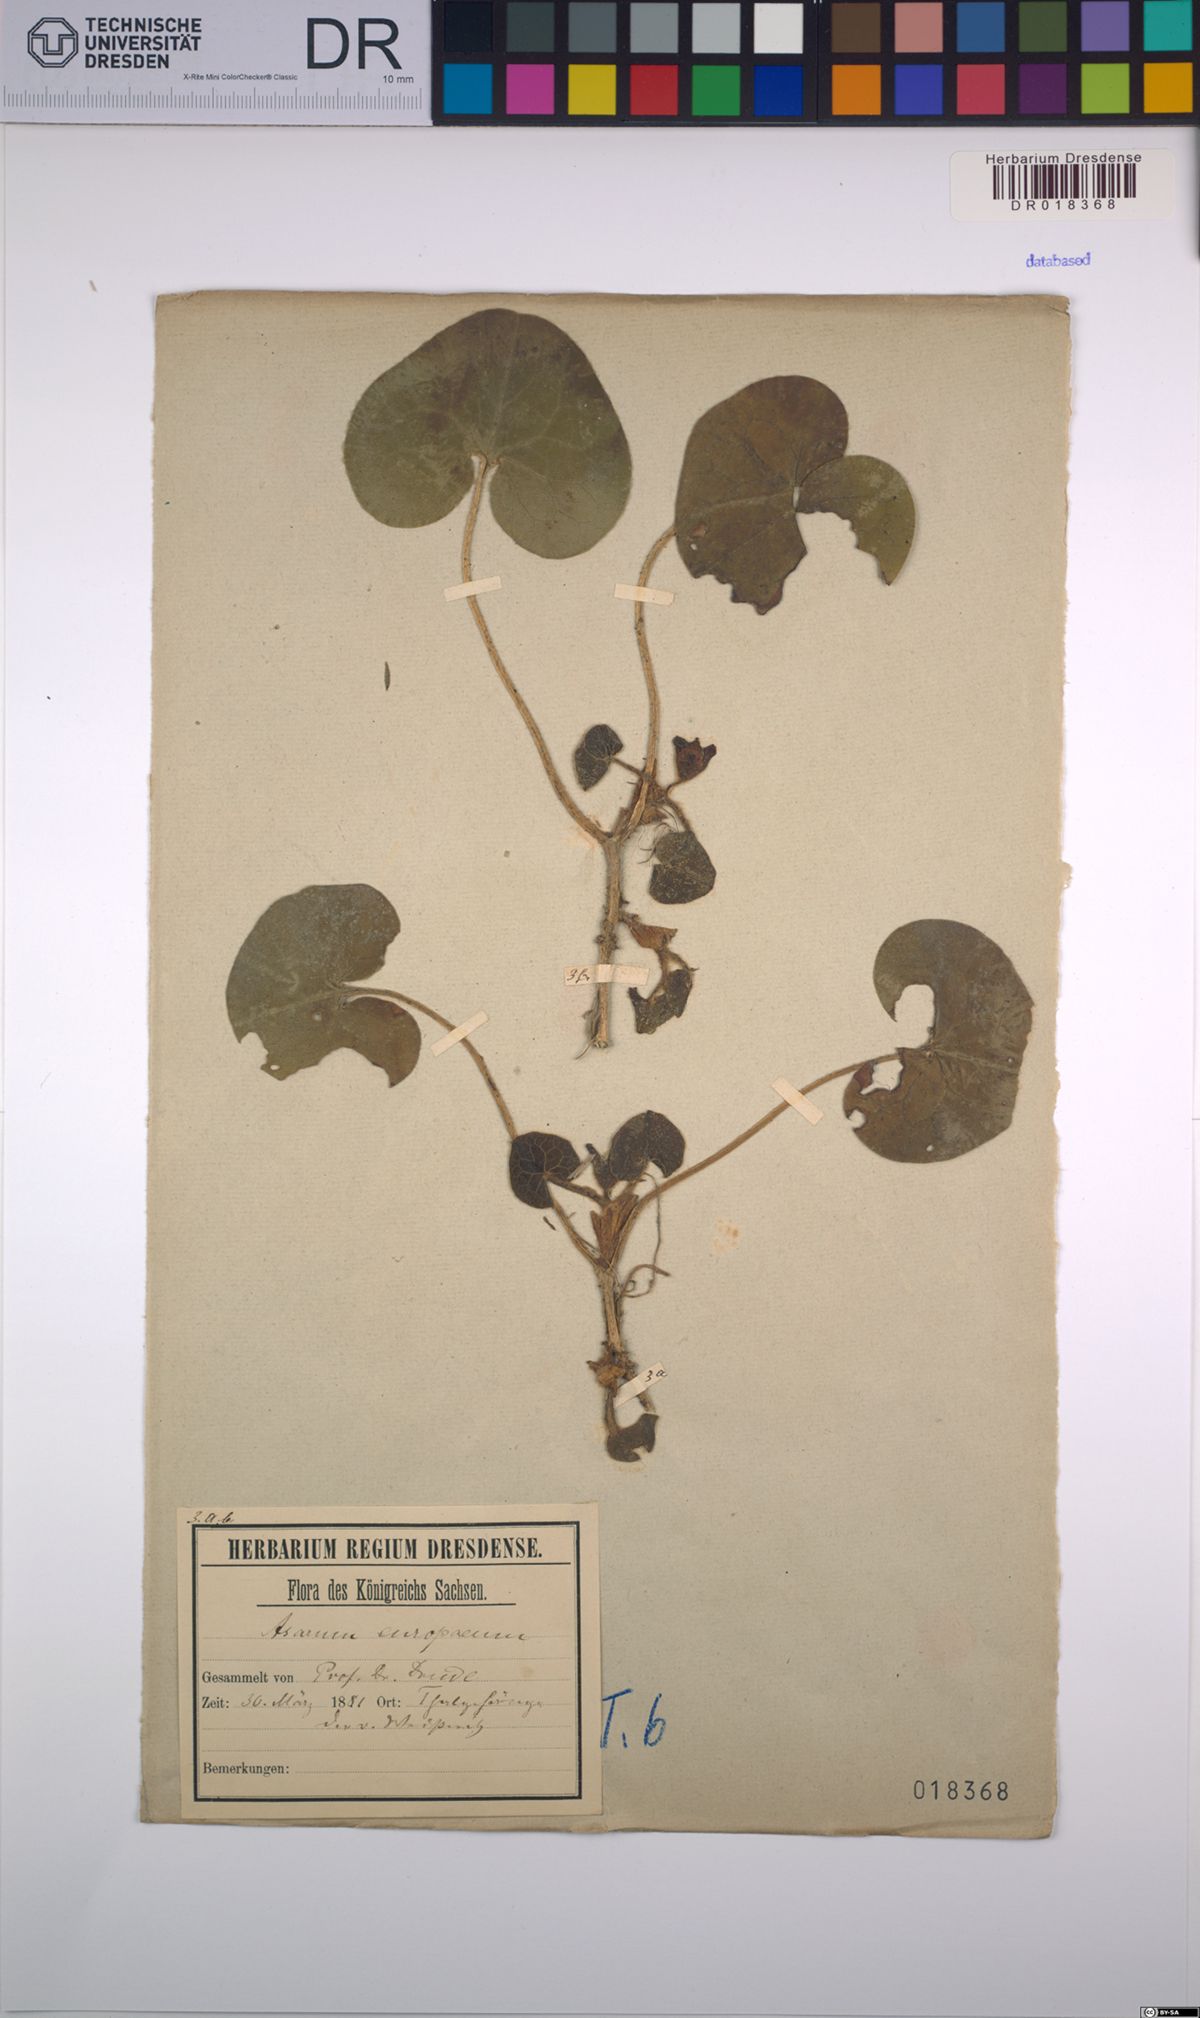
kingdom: Plantae
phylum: Tracheophyta
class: Magnoliopsida
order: Piperales
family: Aristolochiaceae
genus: Asarum
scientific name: Asarum europaeum
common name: Asarabacca
